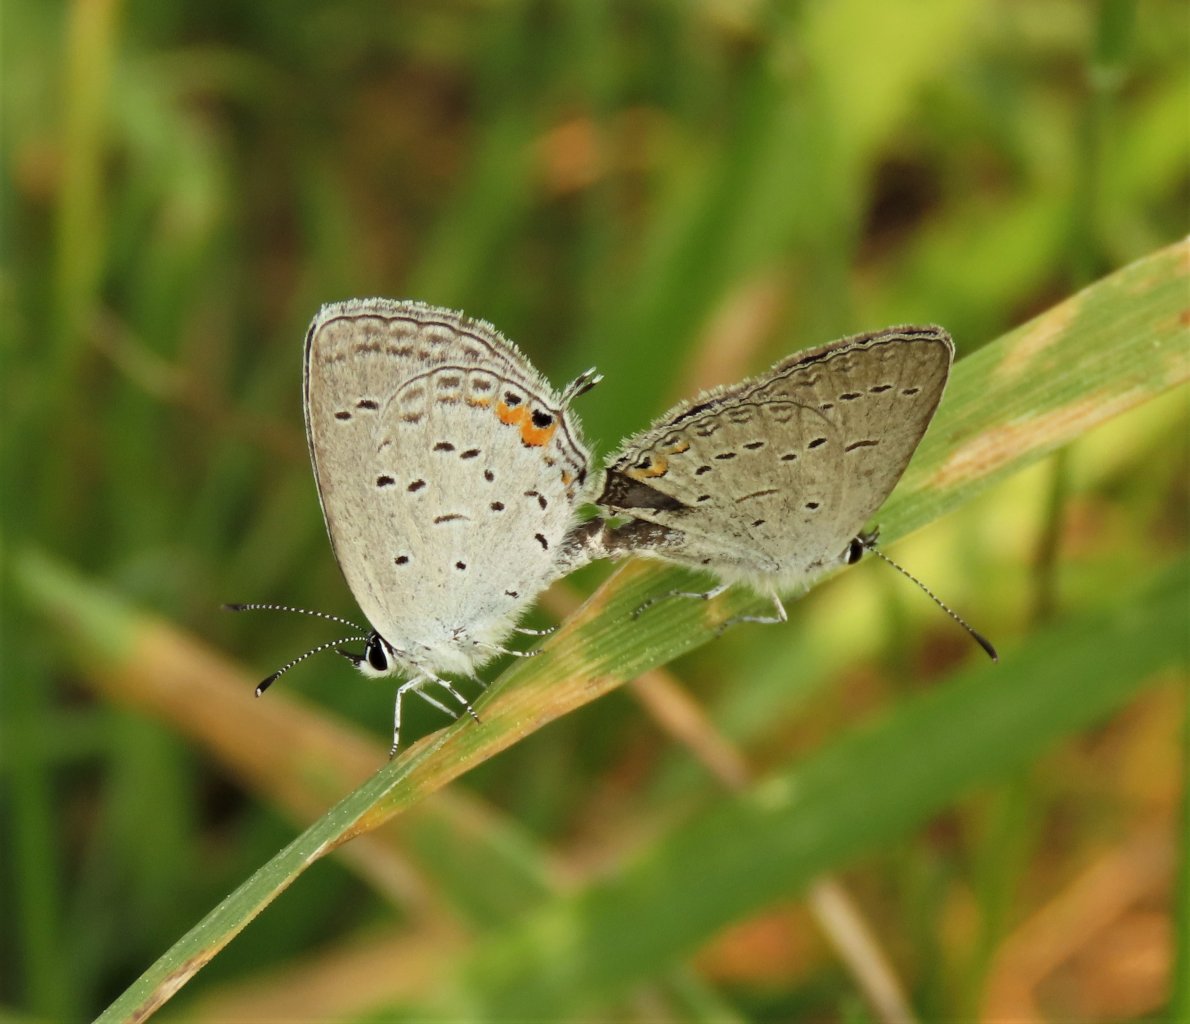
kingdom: Animalia
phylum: Arthropoda
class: Insecta
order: Lepidoptera
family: Lycaenidae
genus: Elkalyce
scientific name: Elkalyce comyntas
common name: Eastern Tailed-Blue
